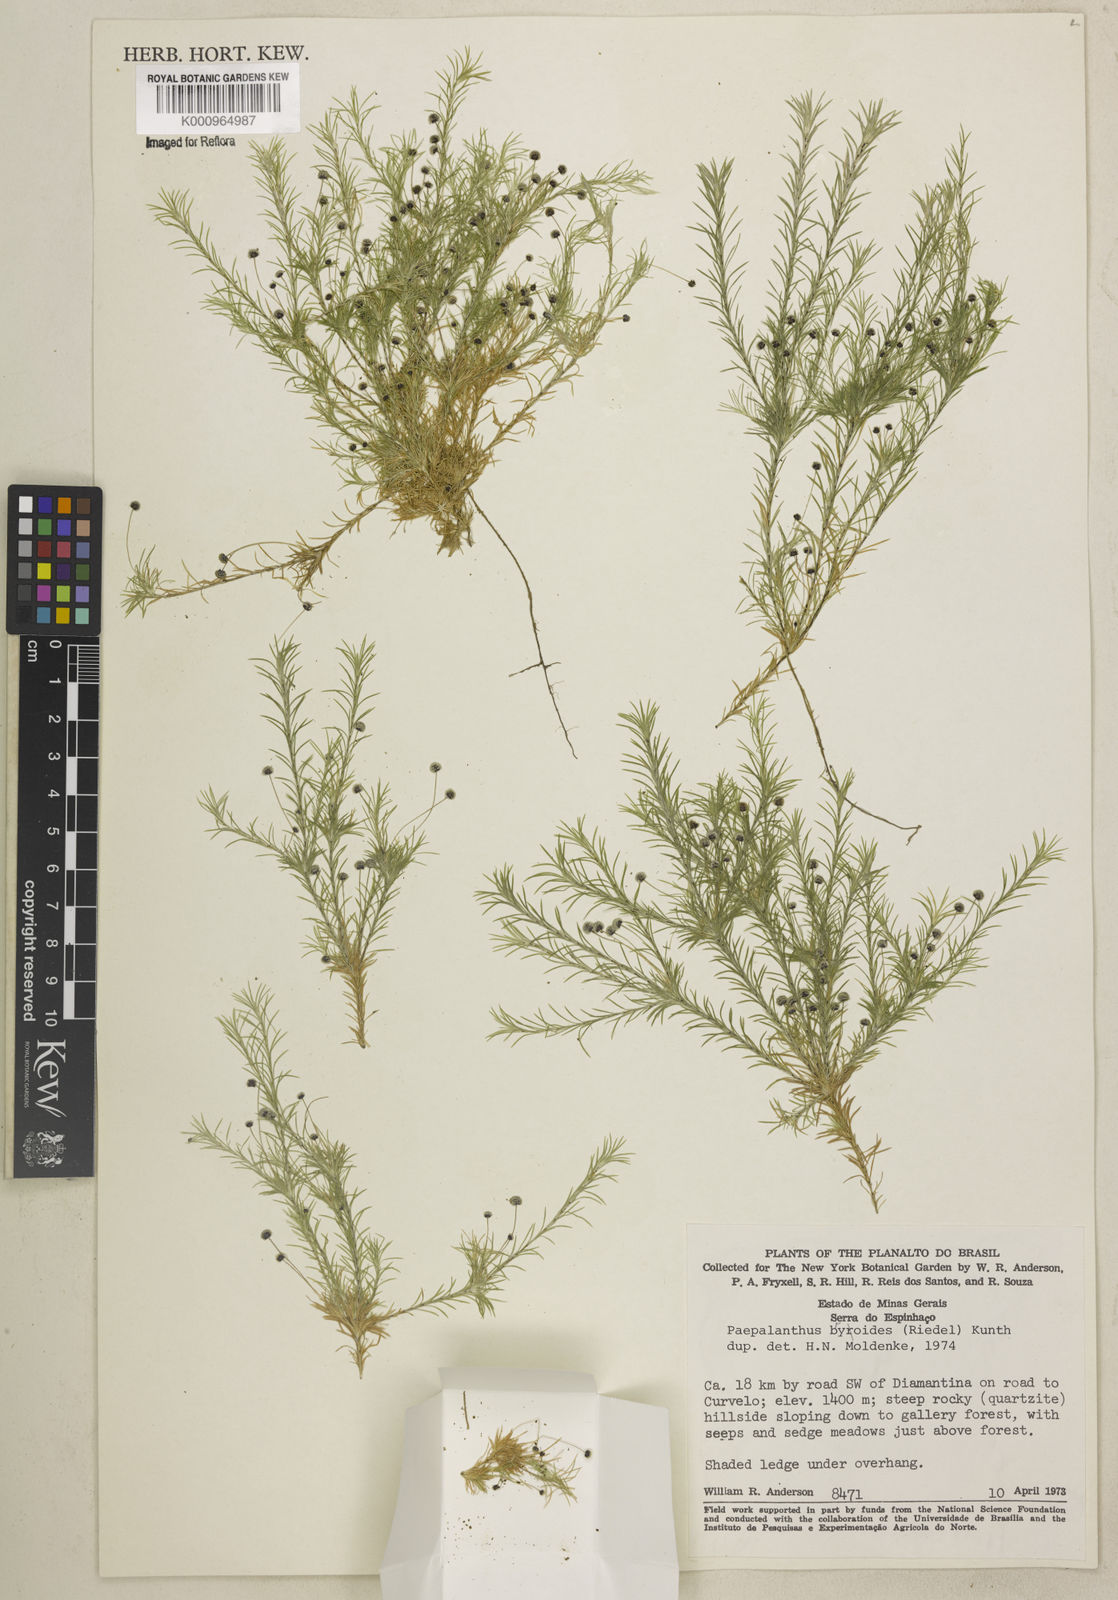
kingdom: Plantae
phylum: Tracheophyta
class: Liliopsida
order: Poales
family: Eriocaulaceae
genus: Paepalanthus
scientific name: Paepalanthus bryoides
